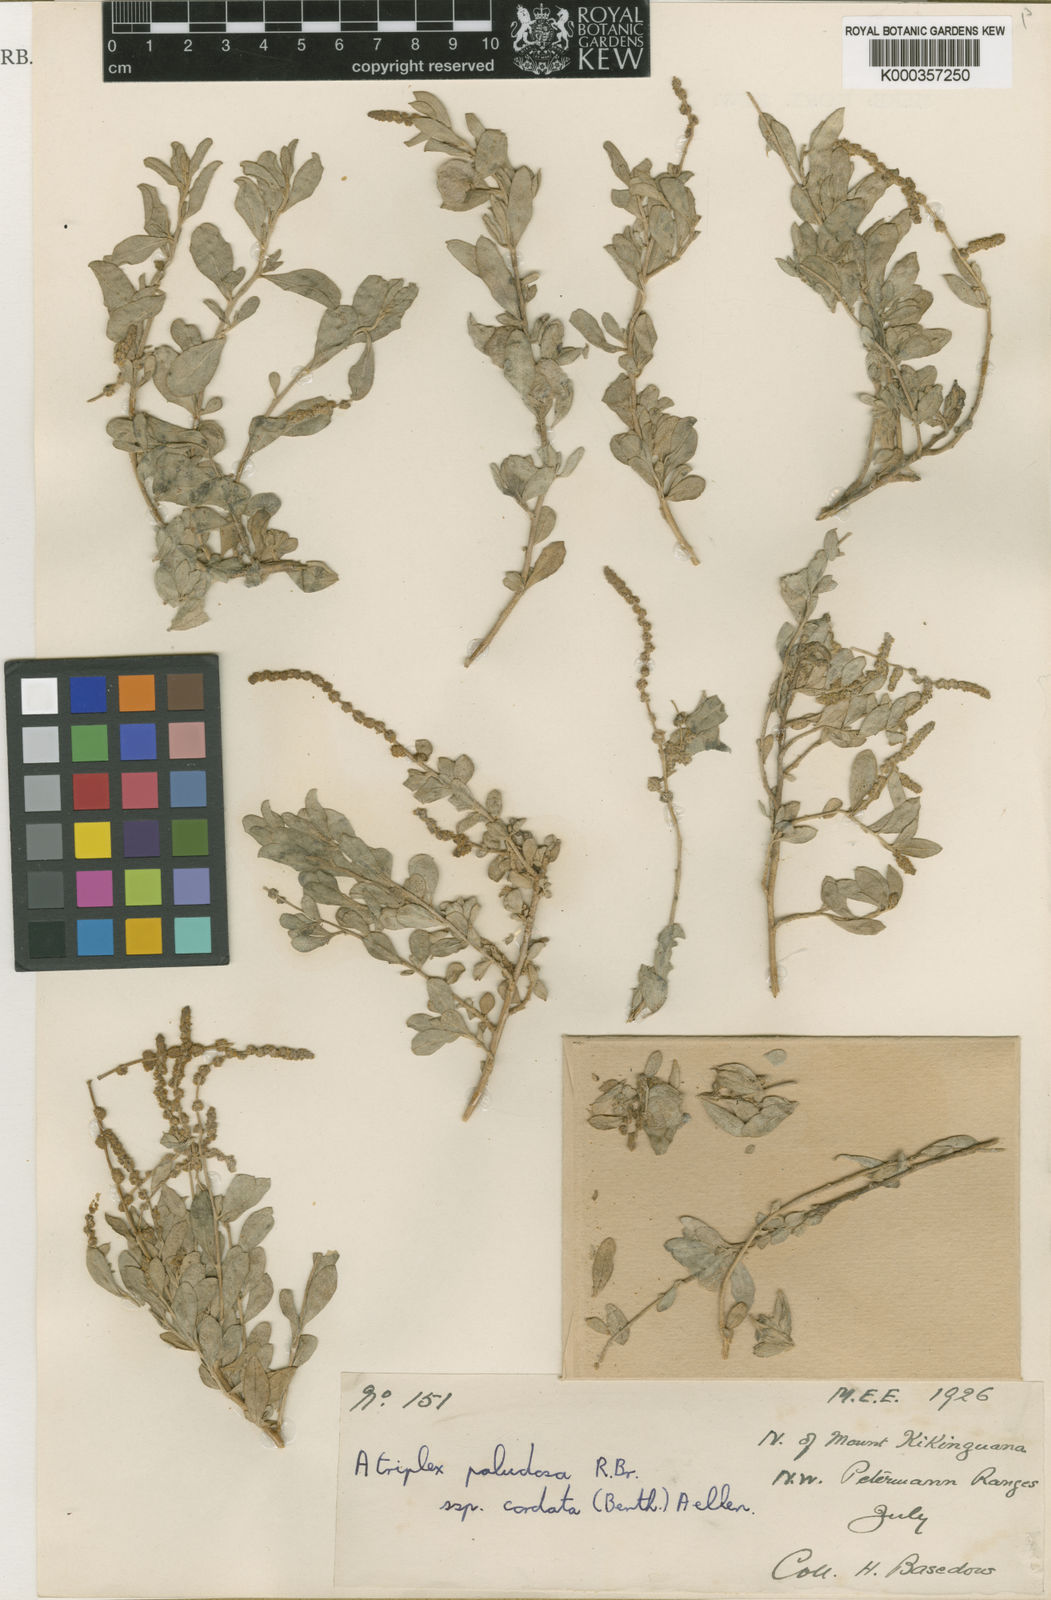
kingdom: Plantae
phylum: Tracheophyta
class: Magnoliopsida
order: Caryophyllales
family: Amaranthaceae
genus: Atriplex
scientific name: Atriplex paludosa
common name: Marsh saltbush
